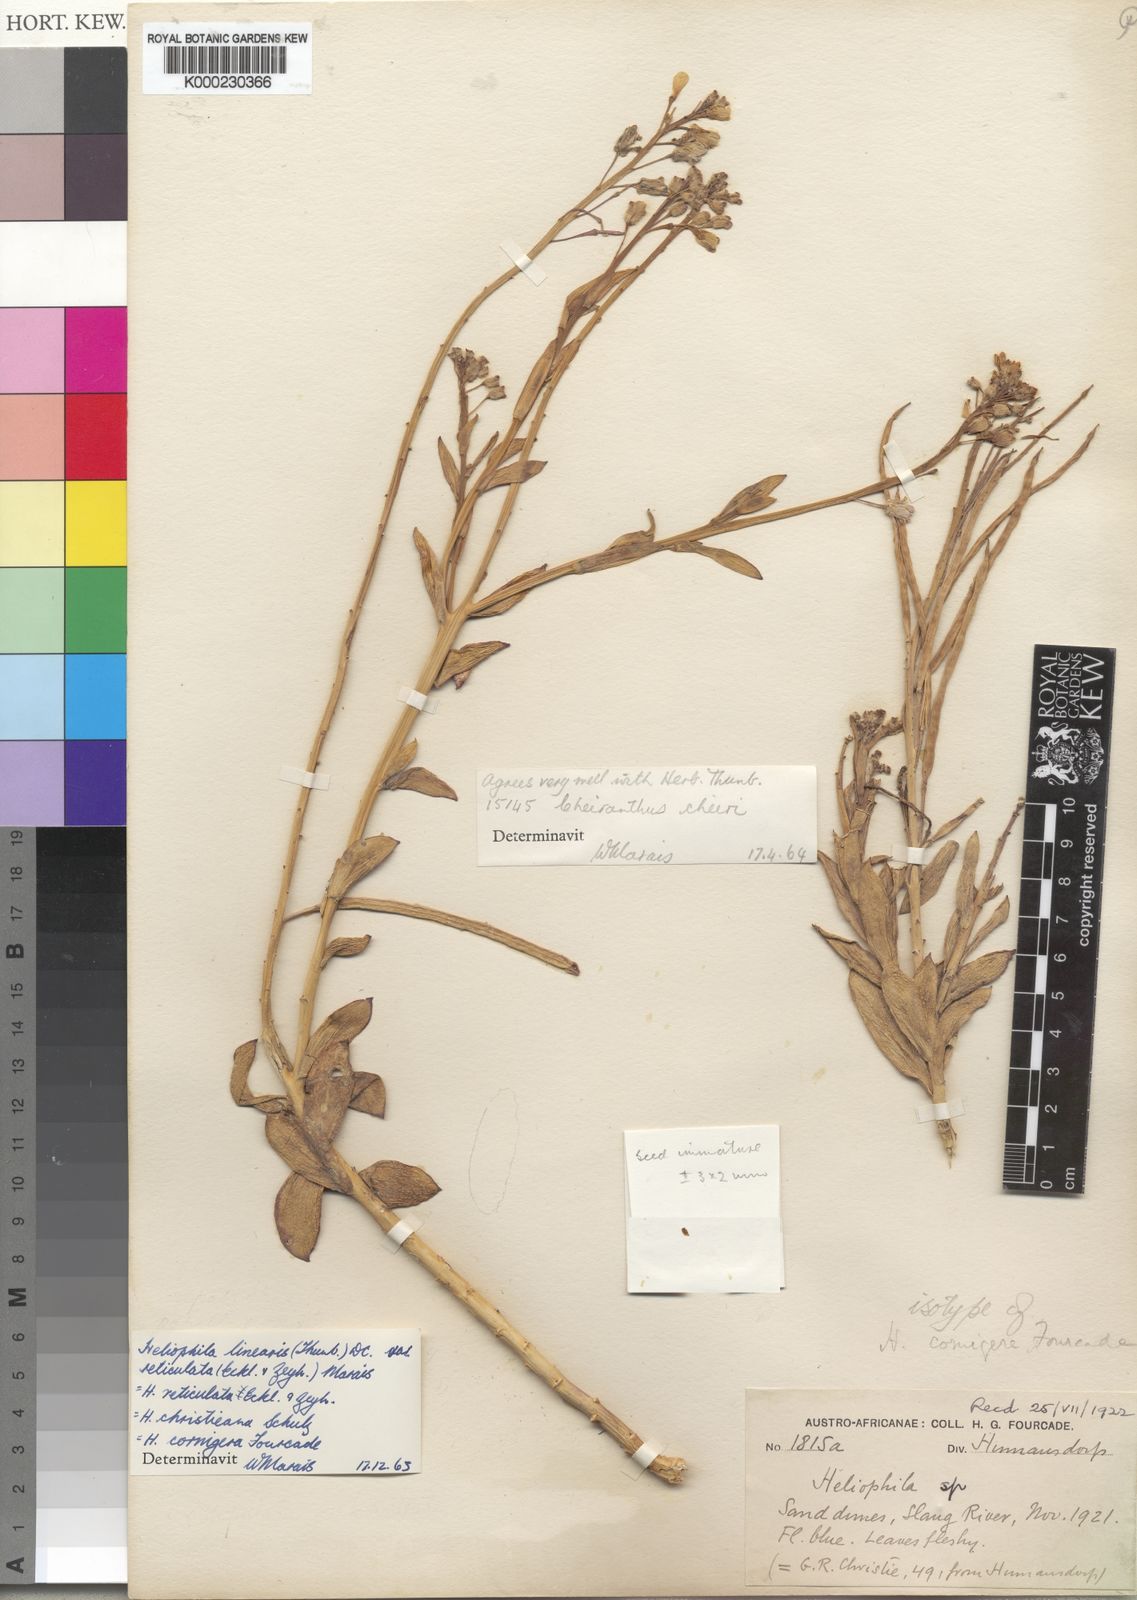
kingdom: Plantae
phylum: Tracheophyta
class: Magnoliopsida
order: Brassicales
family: Brassicaceae
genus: Heliophila
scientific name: Heliophila linearis
